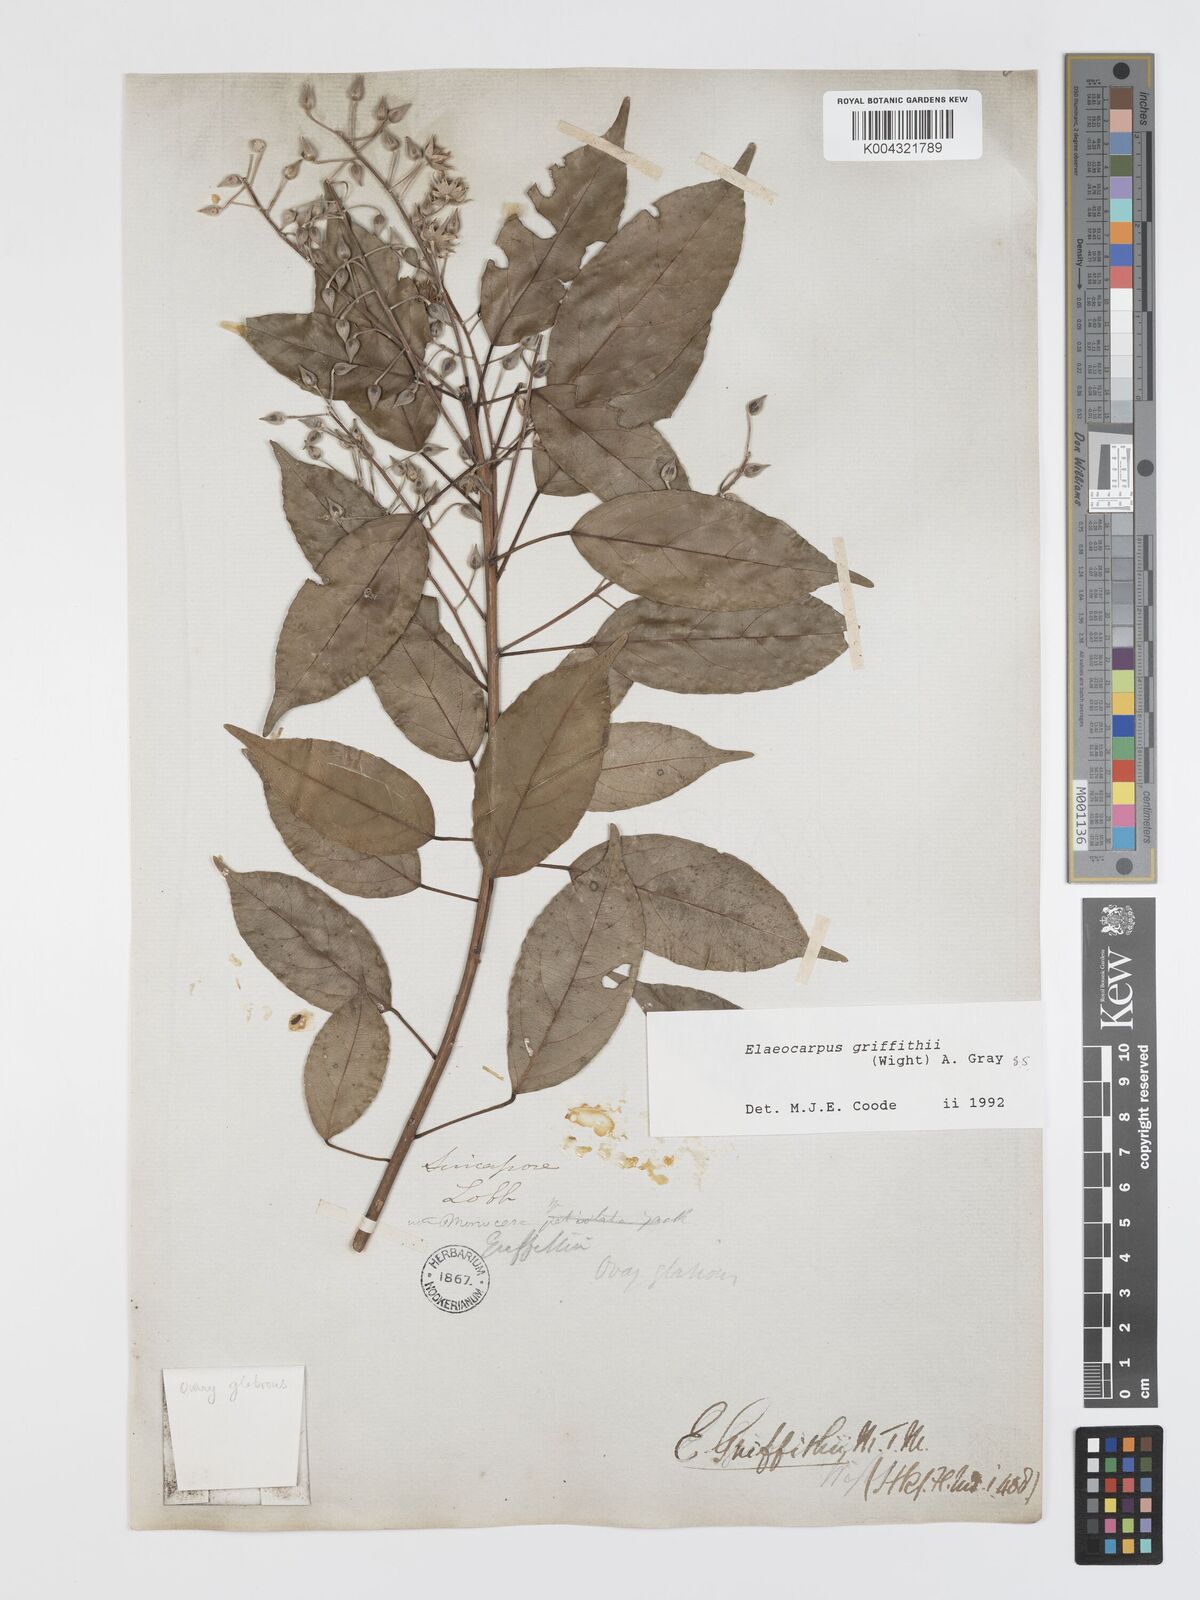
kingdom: Plantae
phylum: Tracheophyta
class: Magnoliopsida
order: Oxalidales
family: Elaeocarpaceae
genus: Elaeocarpus
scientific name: Elaeocarpus griffithii
